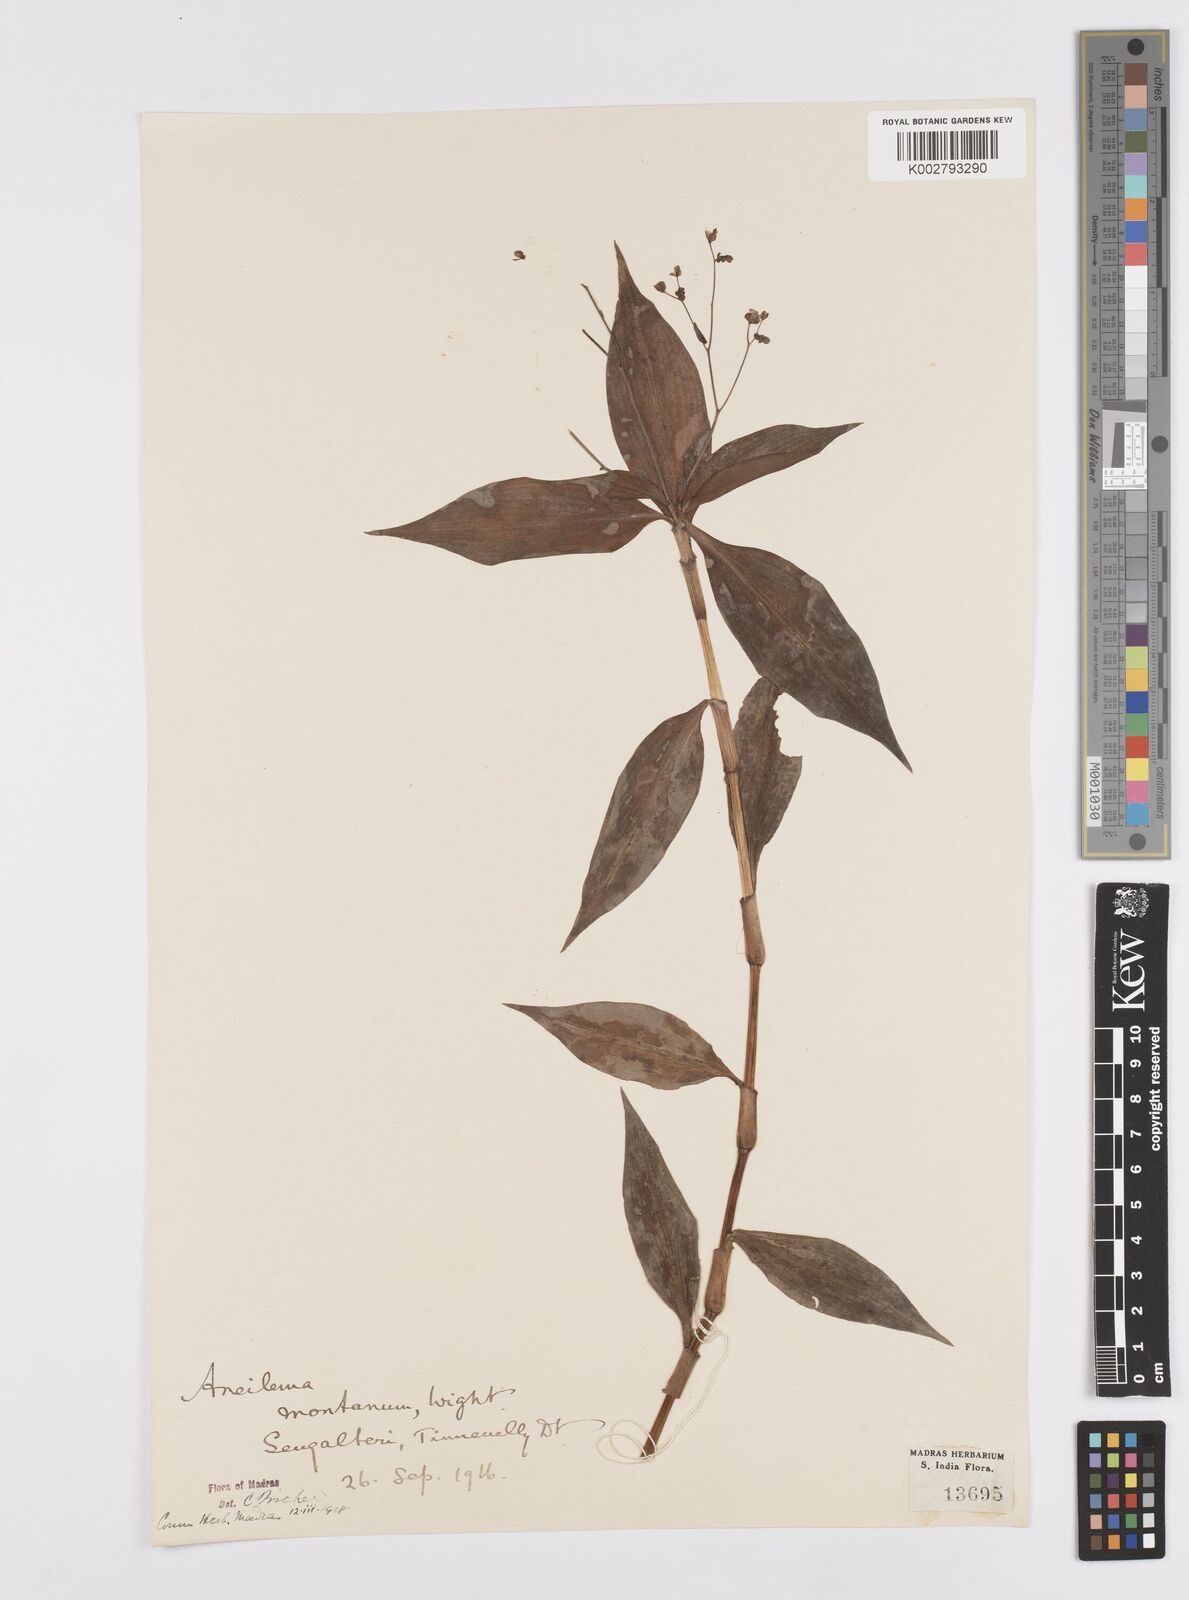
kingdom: Plantae
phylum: Tracheophyta
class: Liliopsida
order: Commelinales
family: Commelinaceae
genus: Murdannia
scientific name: Murdannia
